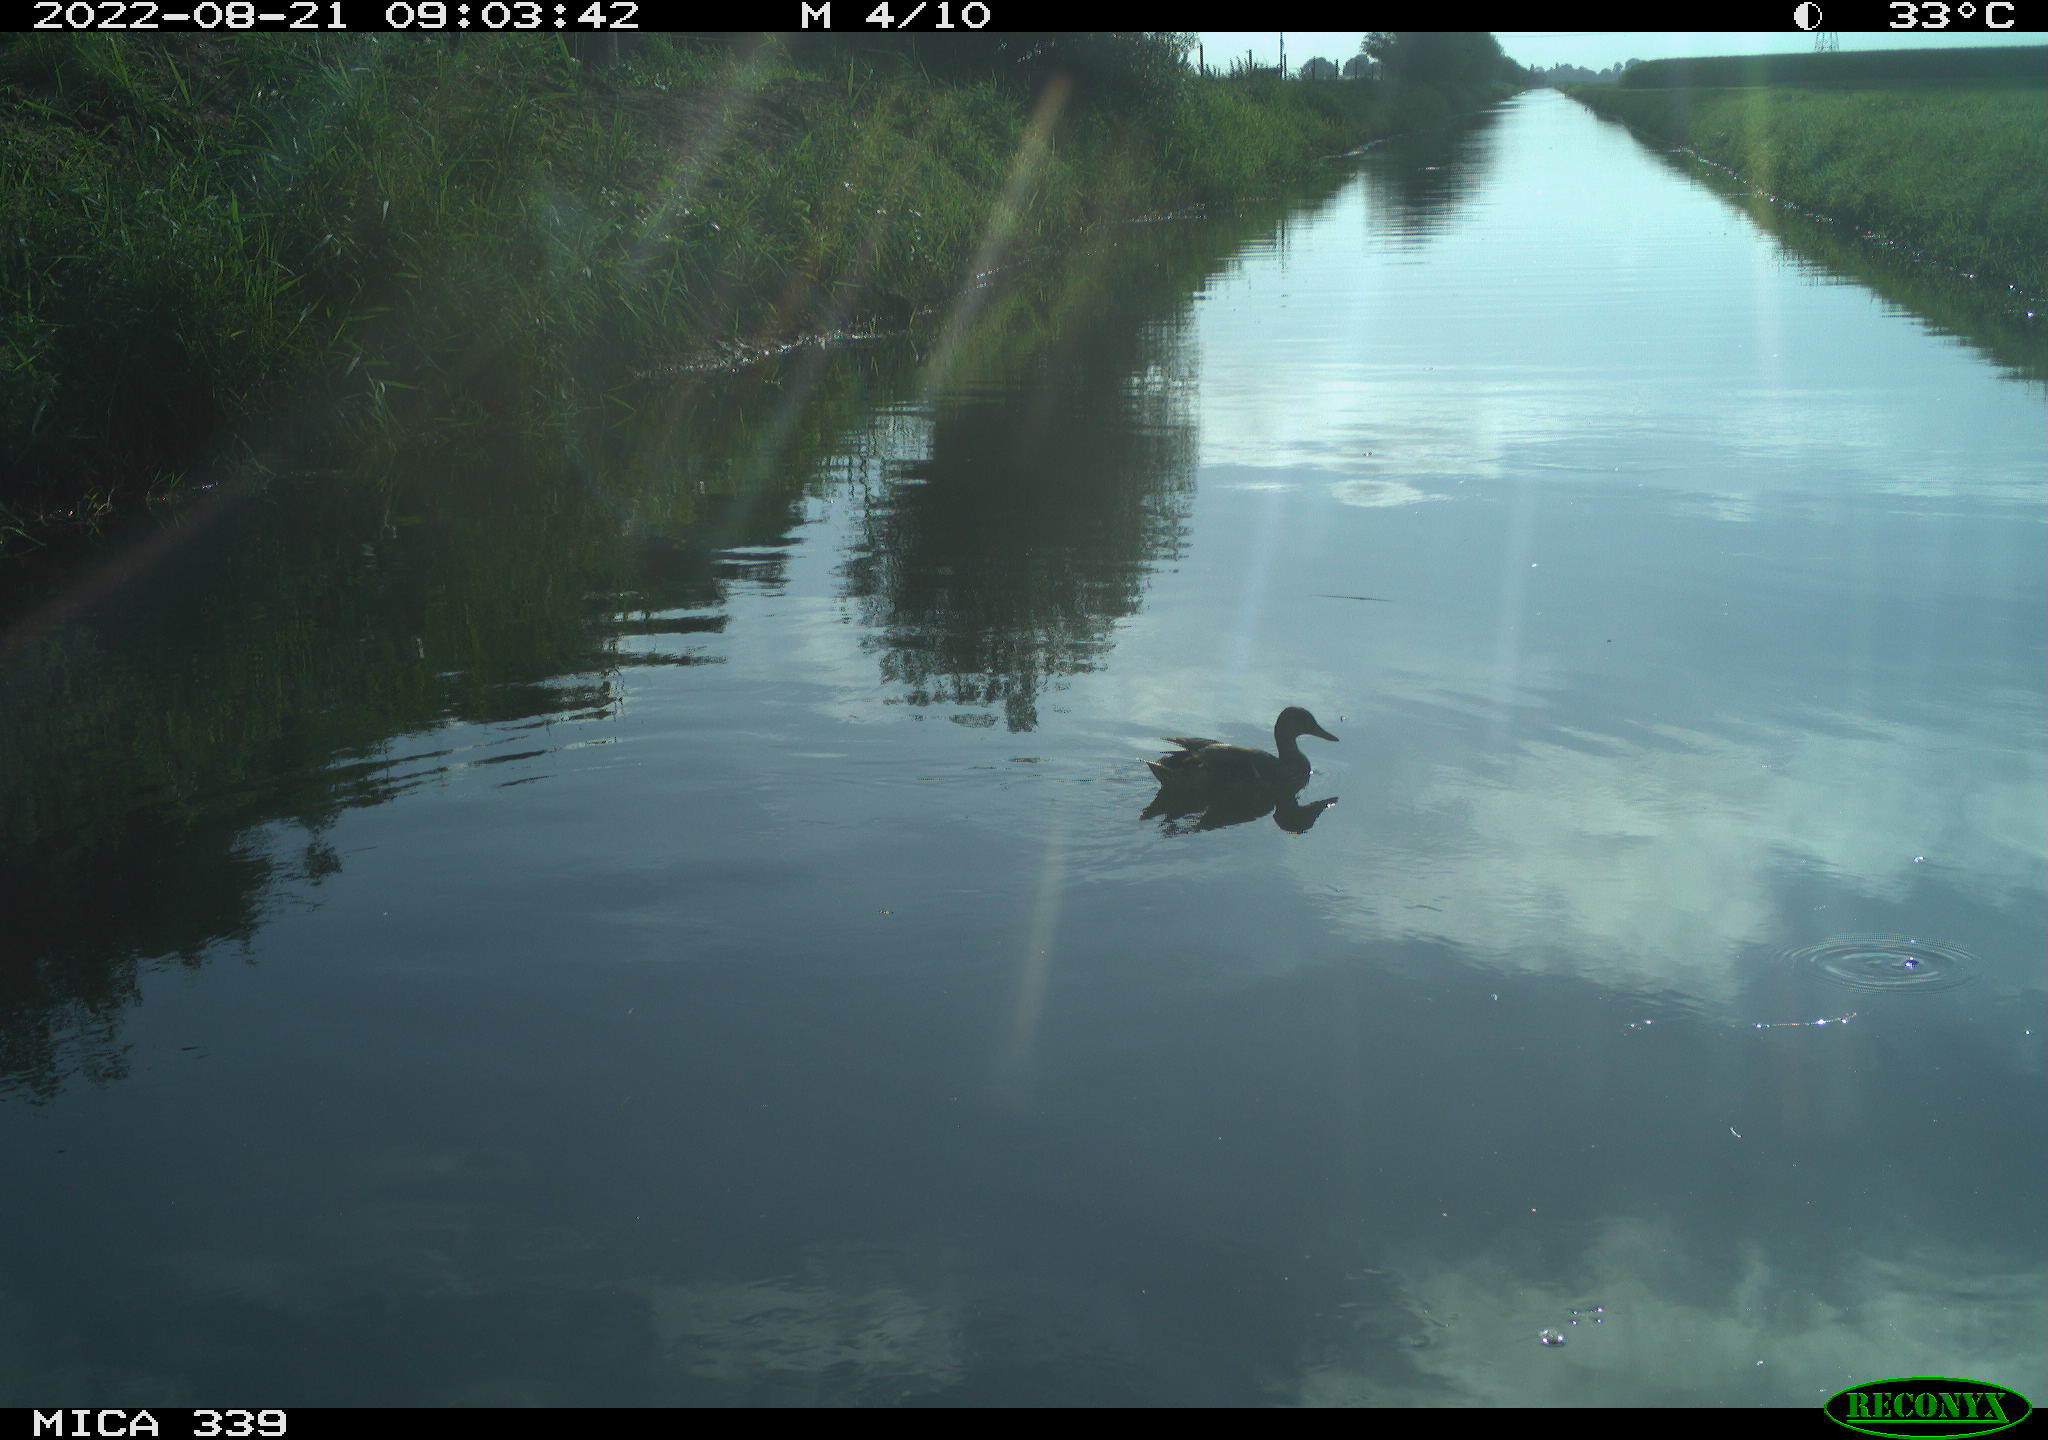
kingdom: Animalia
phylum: Chordata
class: Aves
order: Gruiformes
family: Rallidae
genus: Gallinula
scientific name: Gallinula chloropus
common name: Common moorhen
